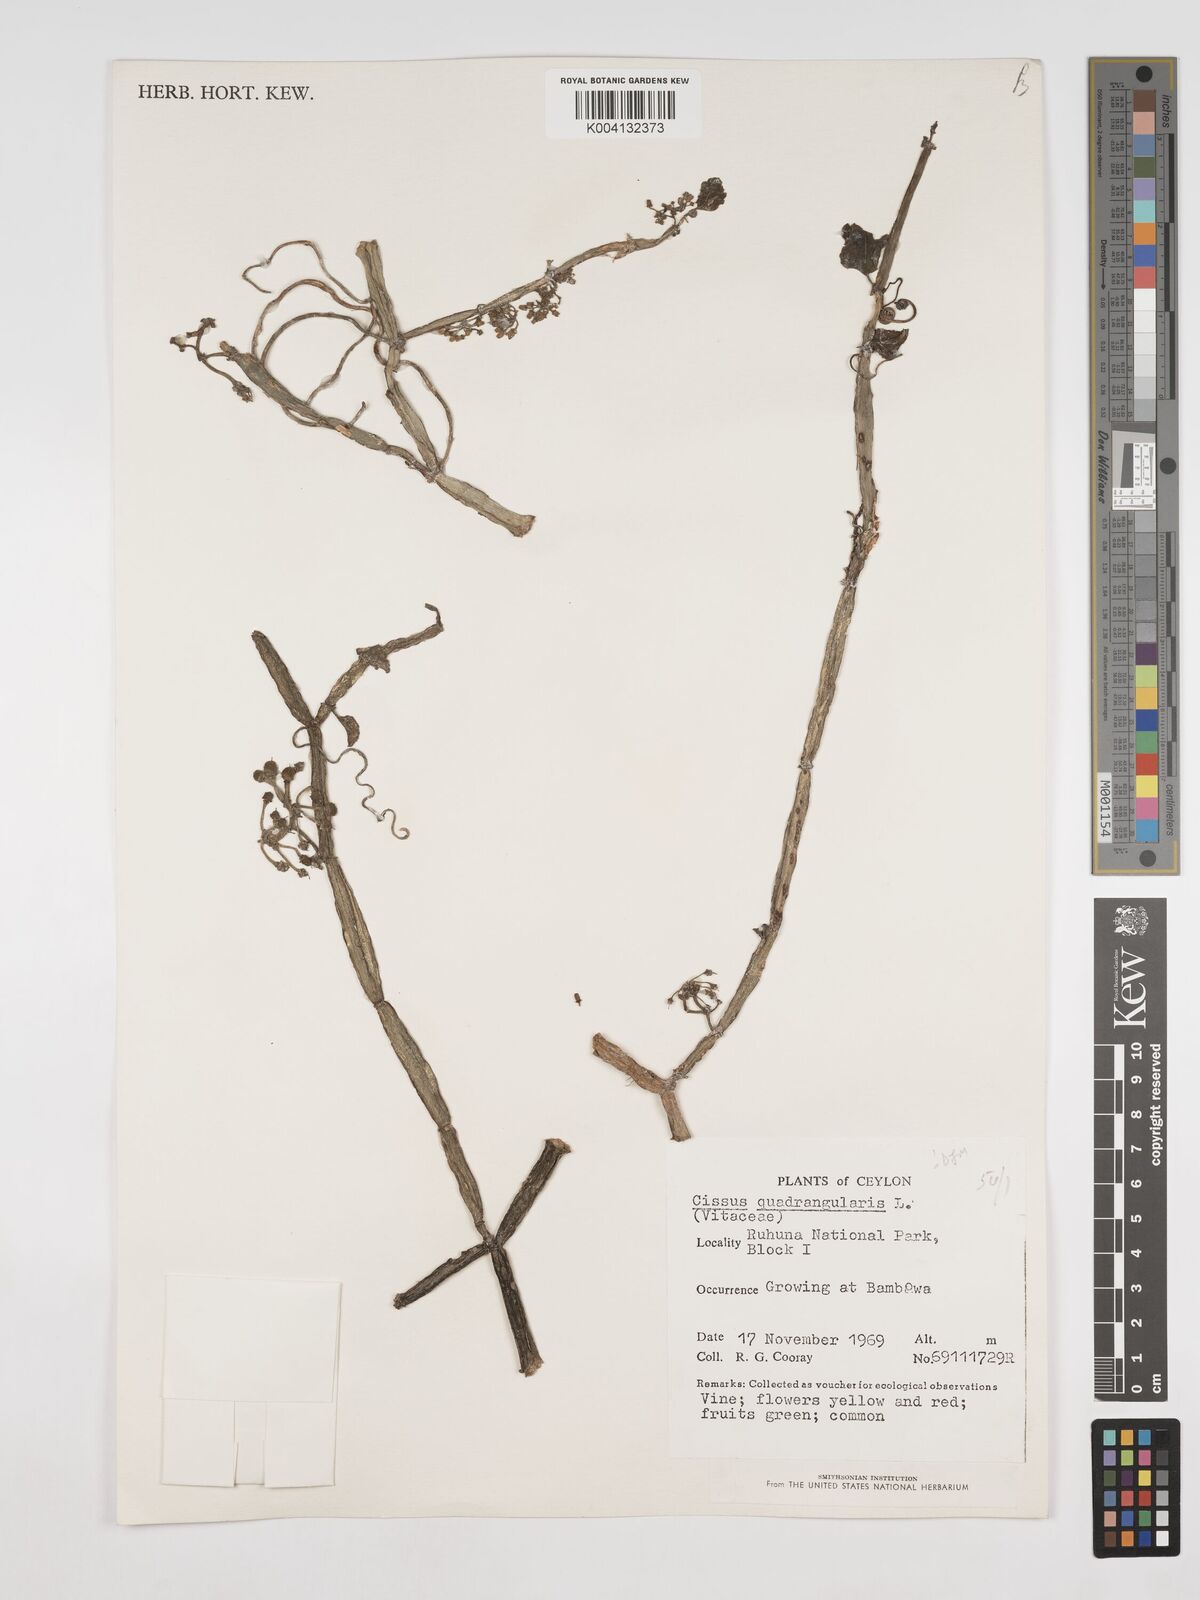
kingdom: Plantae
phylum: Tracheophyta
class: Magnoliopsida
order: Vitales
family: Vitaceae
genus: Cissus
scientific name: Cissus quadrangularis
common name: Veldt-grape
